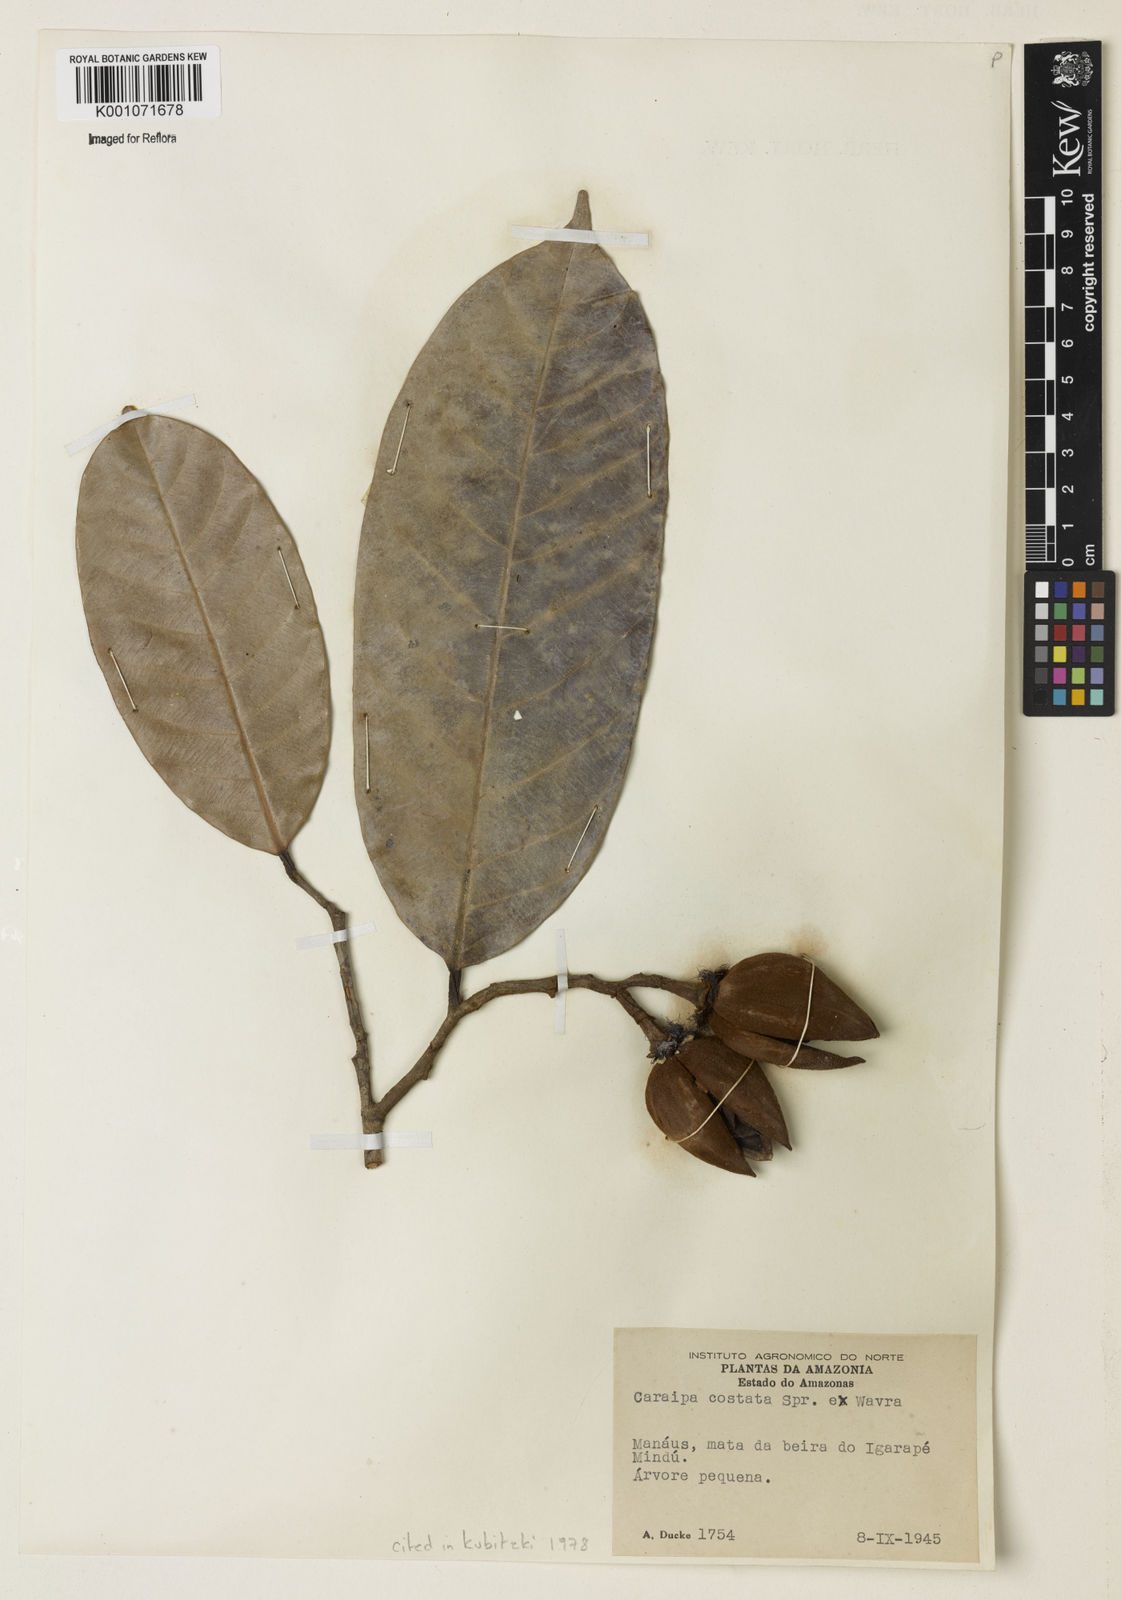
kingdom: Plantae
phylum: Tracheophyta
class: Magnoliopsida
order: Malpighiales
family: Calophyllaceae
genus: Caraipa
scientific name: Caraipa costata
